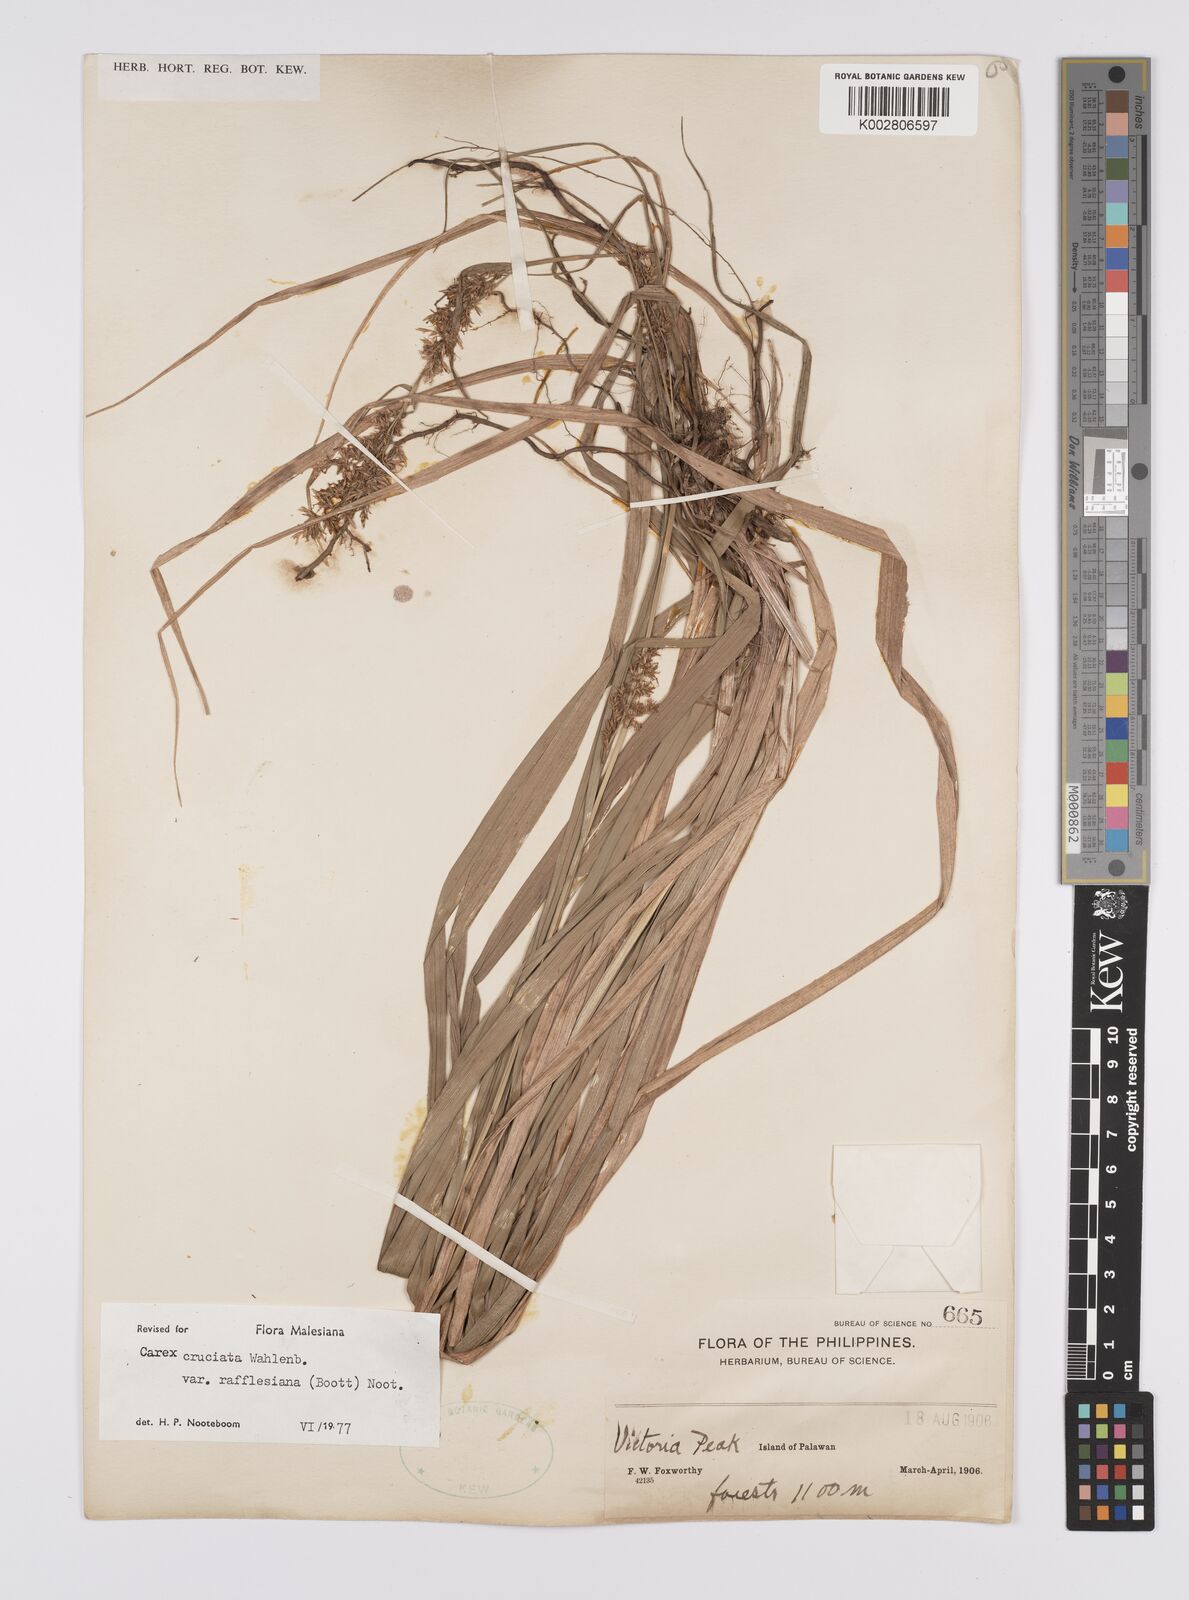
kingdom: Plantae
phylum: Tracheophyta
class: Liliopsida
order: Poales
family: Cyperaceae
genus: Carex
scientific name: Carex rafflesiana
